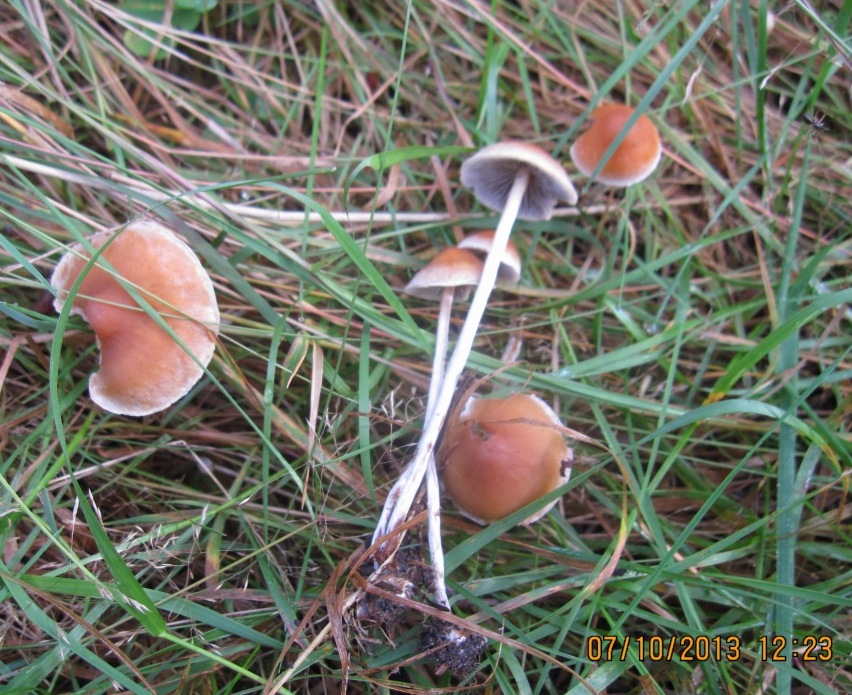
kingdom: Fungi
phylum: Basidiomycota
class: Agaricomycetes
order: Agaricales
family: Strophariaceae
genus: Hypholoma
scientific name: Hypholoma marginatum
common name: enlig svovlhat
